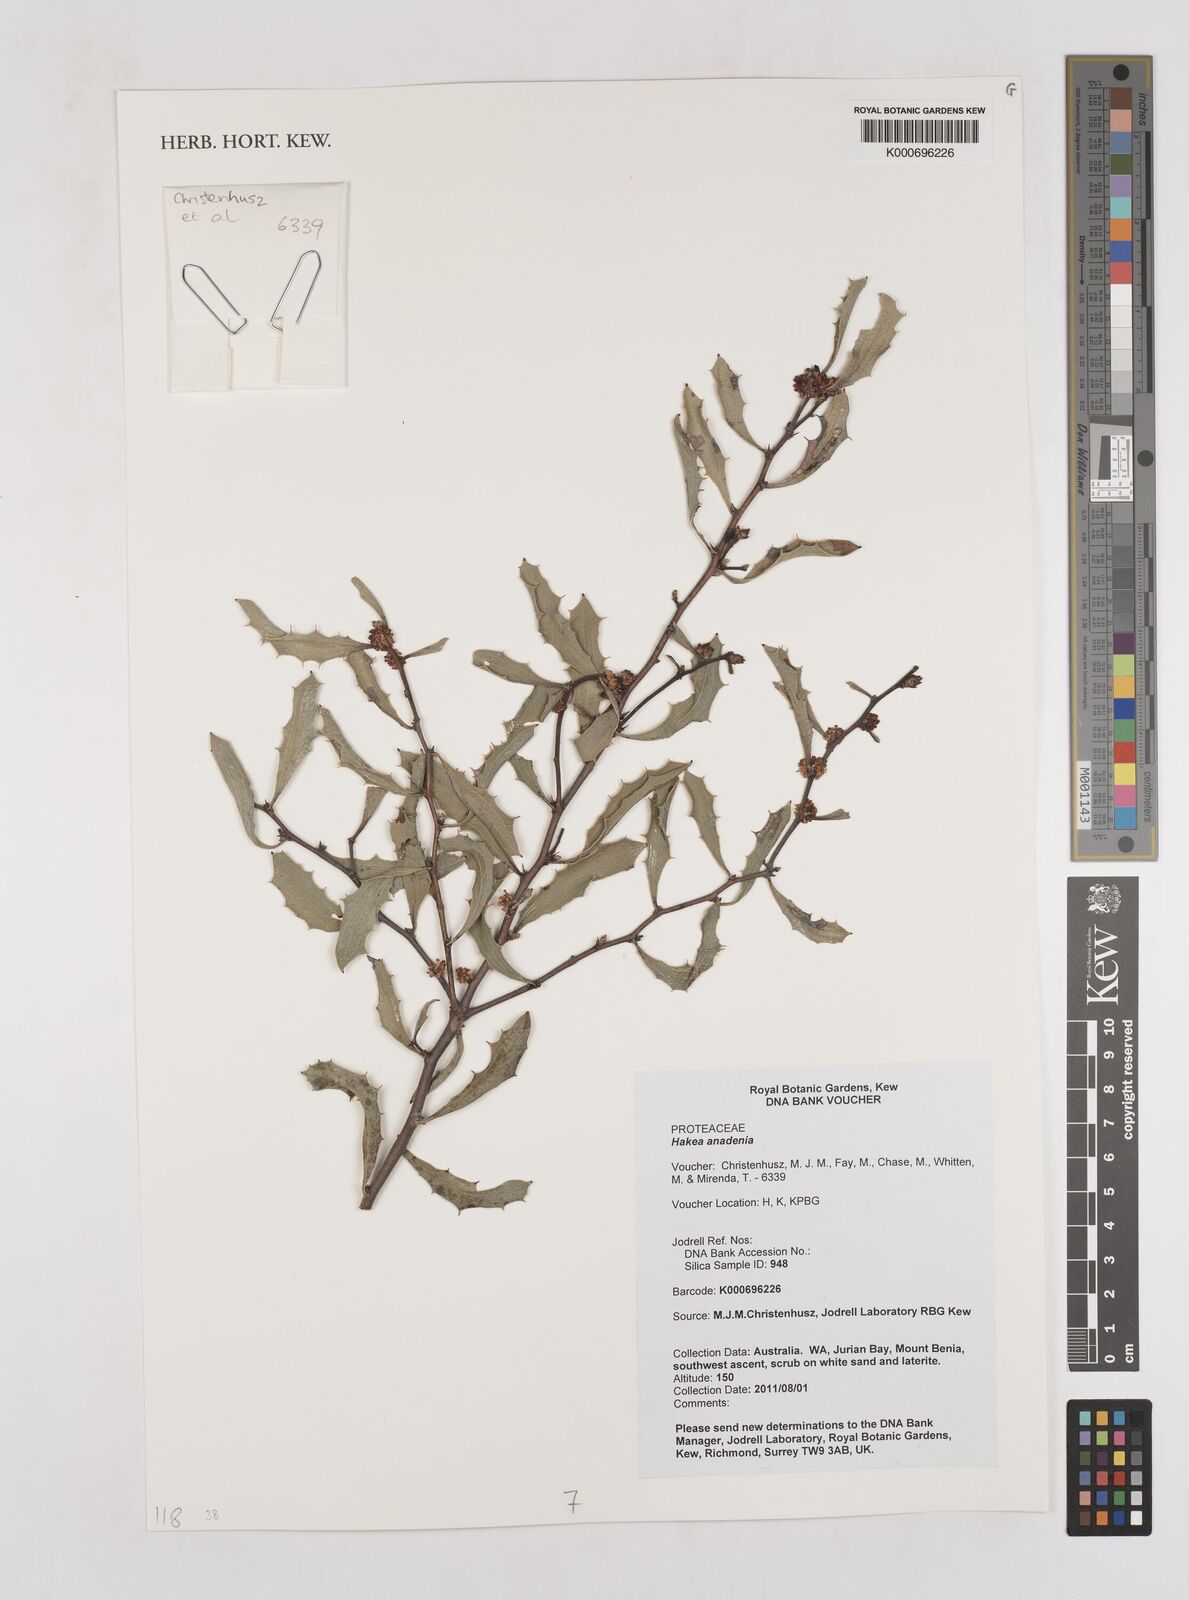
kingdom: Plantae
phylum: Tracheophyta
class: Magnoliopsida
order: Proteales
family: Proteaceae
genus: Hakea
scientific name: Hakea anadenia
